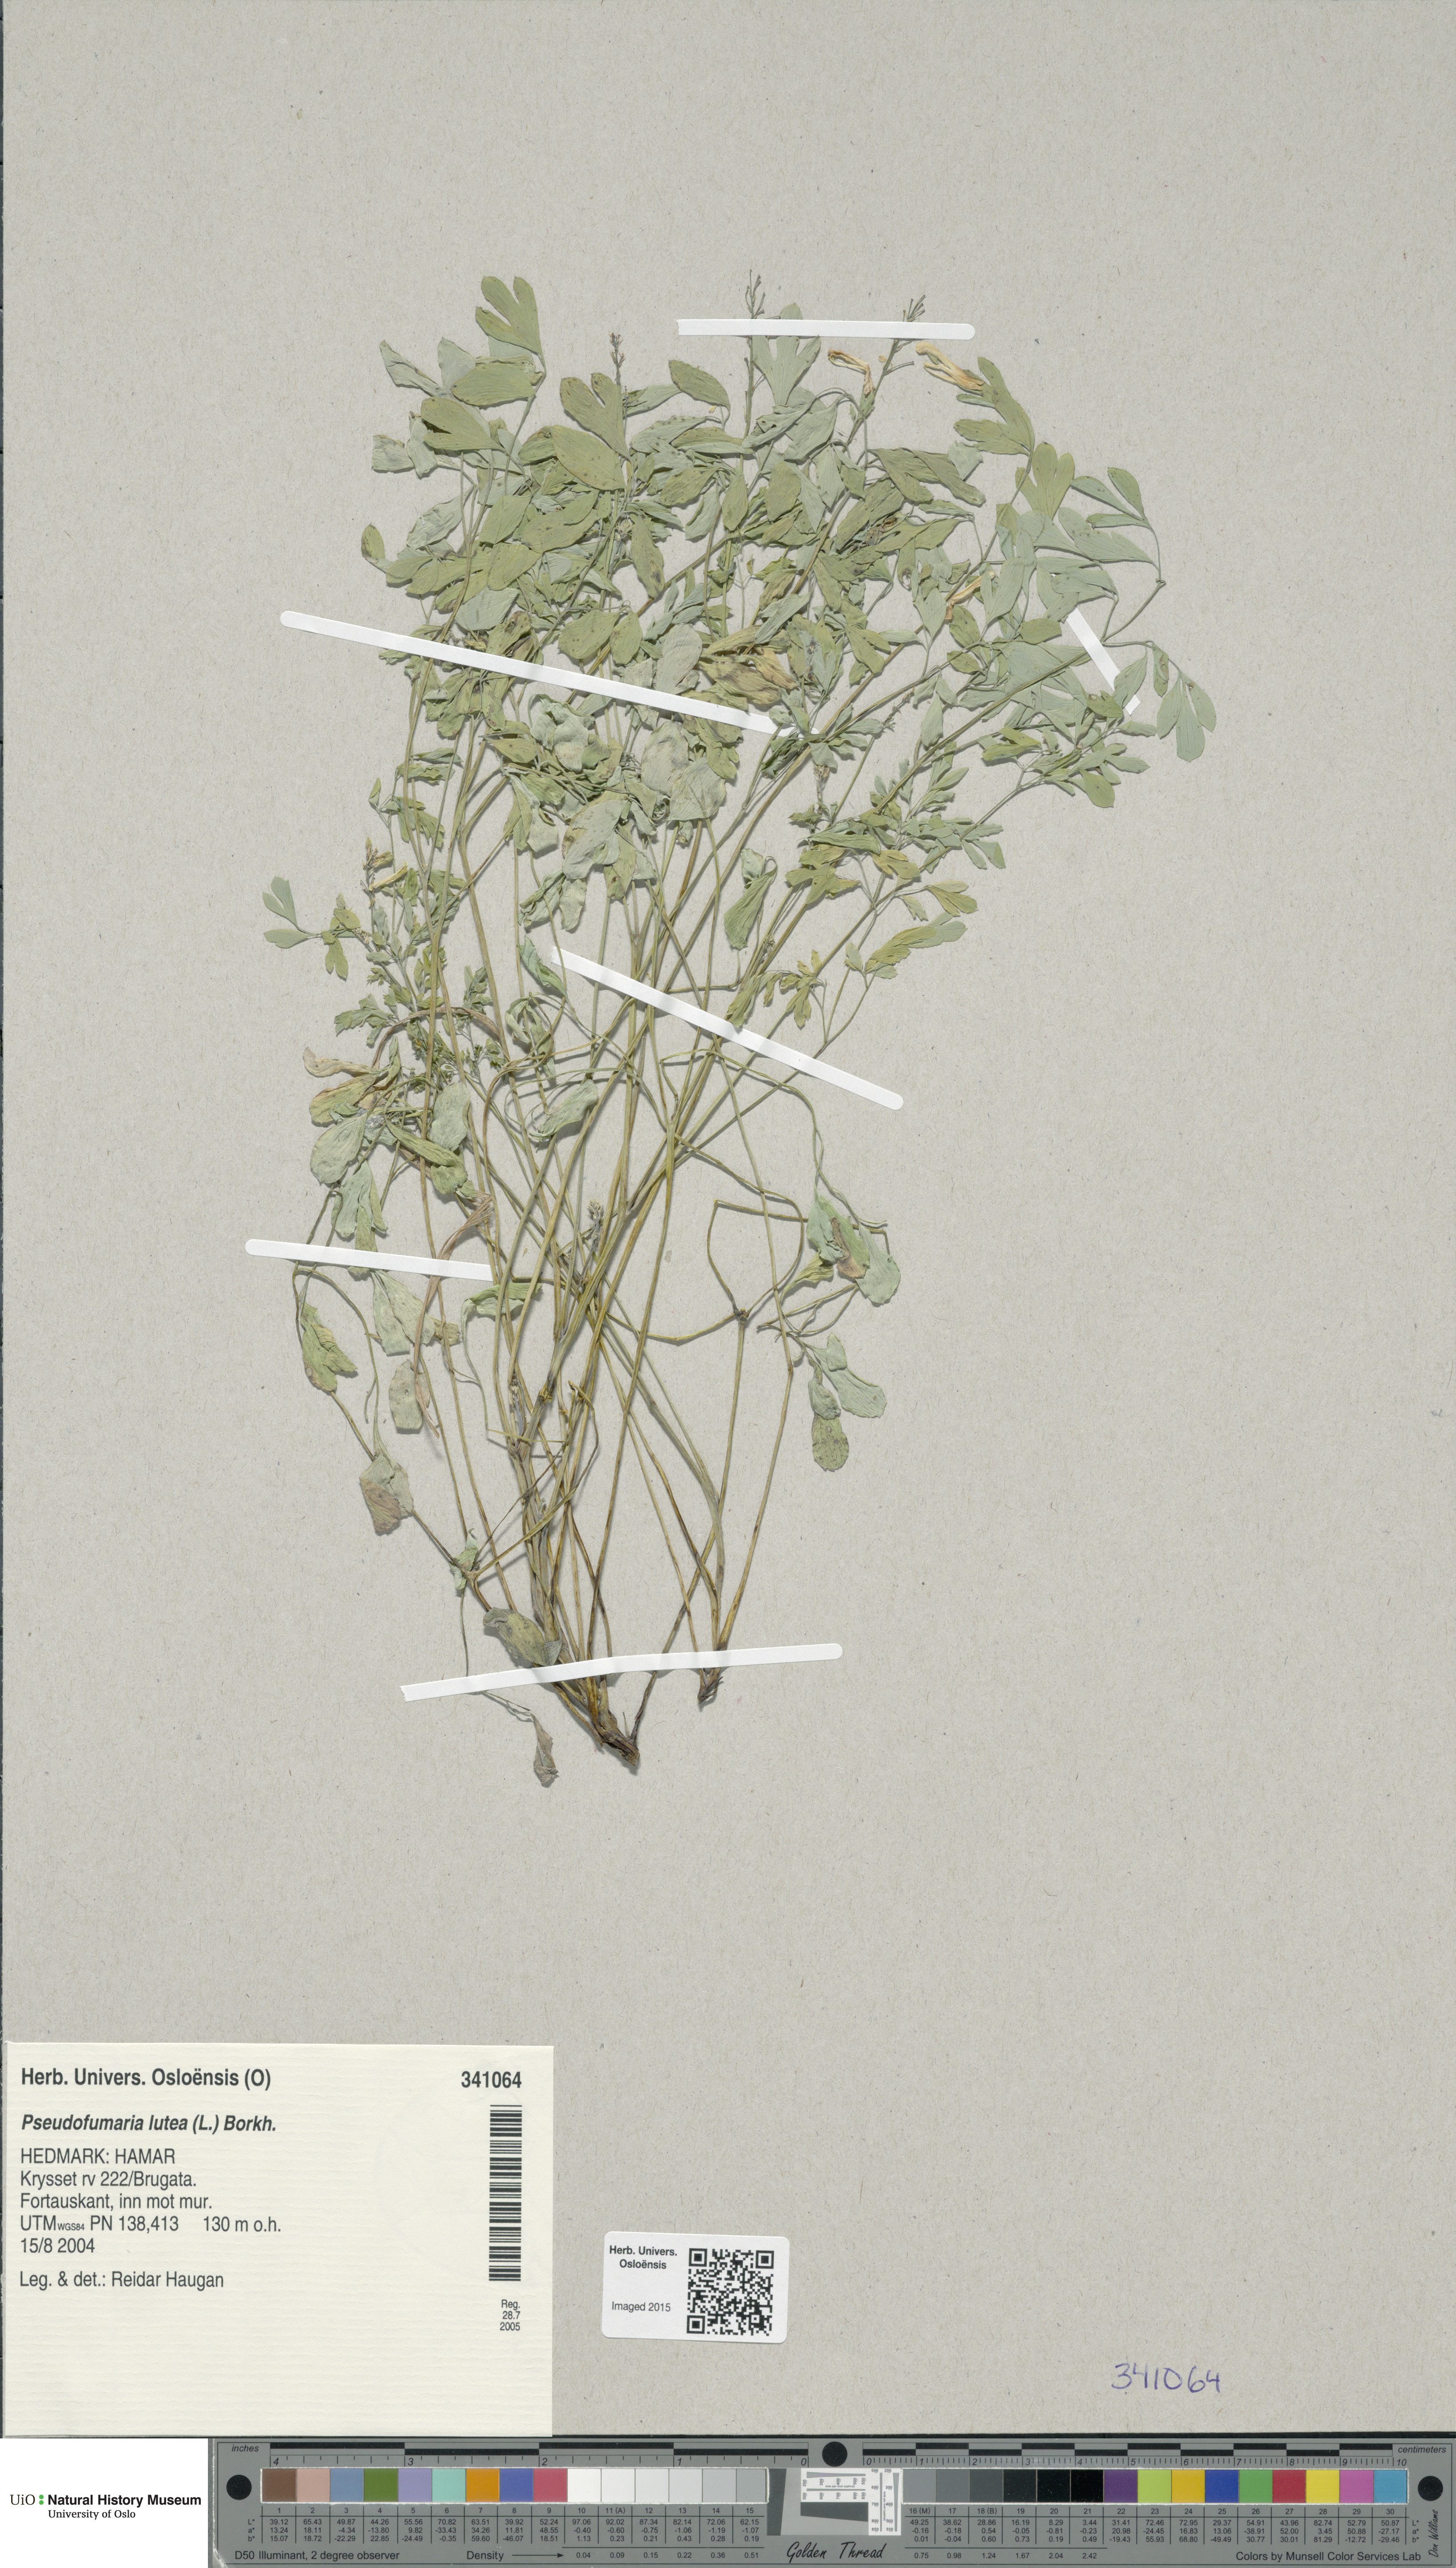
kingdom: Plantae
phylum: Tracheophyta
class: Magnoliopsida
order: Ranunculales
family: Papaveraceae
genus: Pseudofumaria
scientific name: Pseudofumaria lutea
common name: Yellow corydalis
